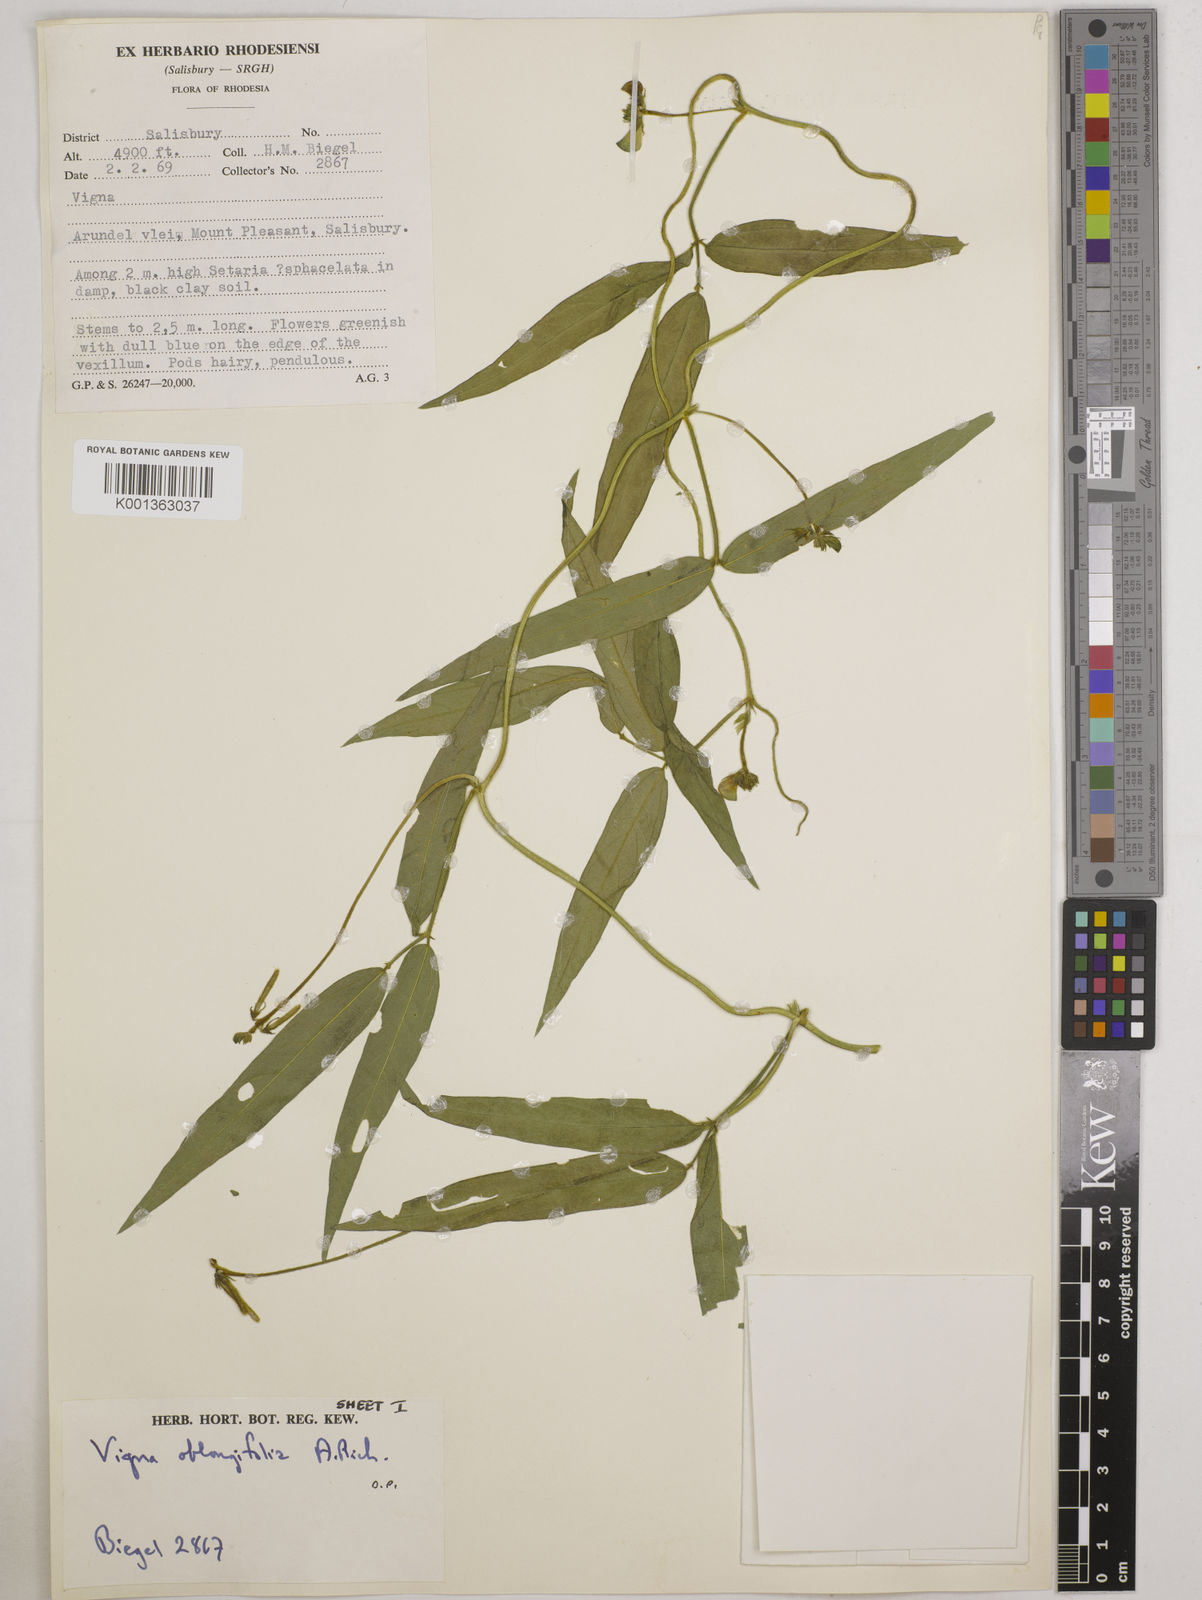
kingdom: Plantae
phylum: Tracheophyta
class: Magnoliopsida
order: Fabales
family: Fabaceae
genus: Vigna
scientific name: Vigna oblongifolia
